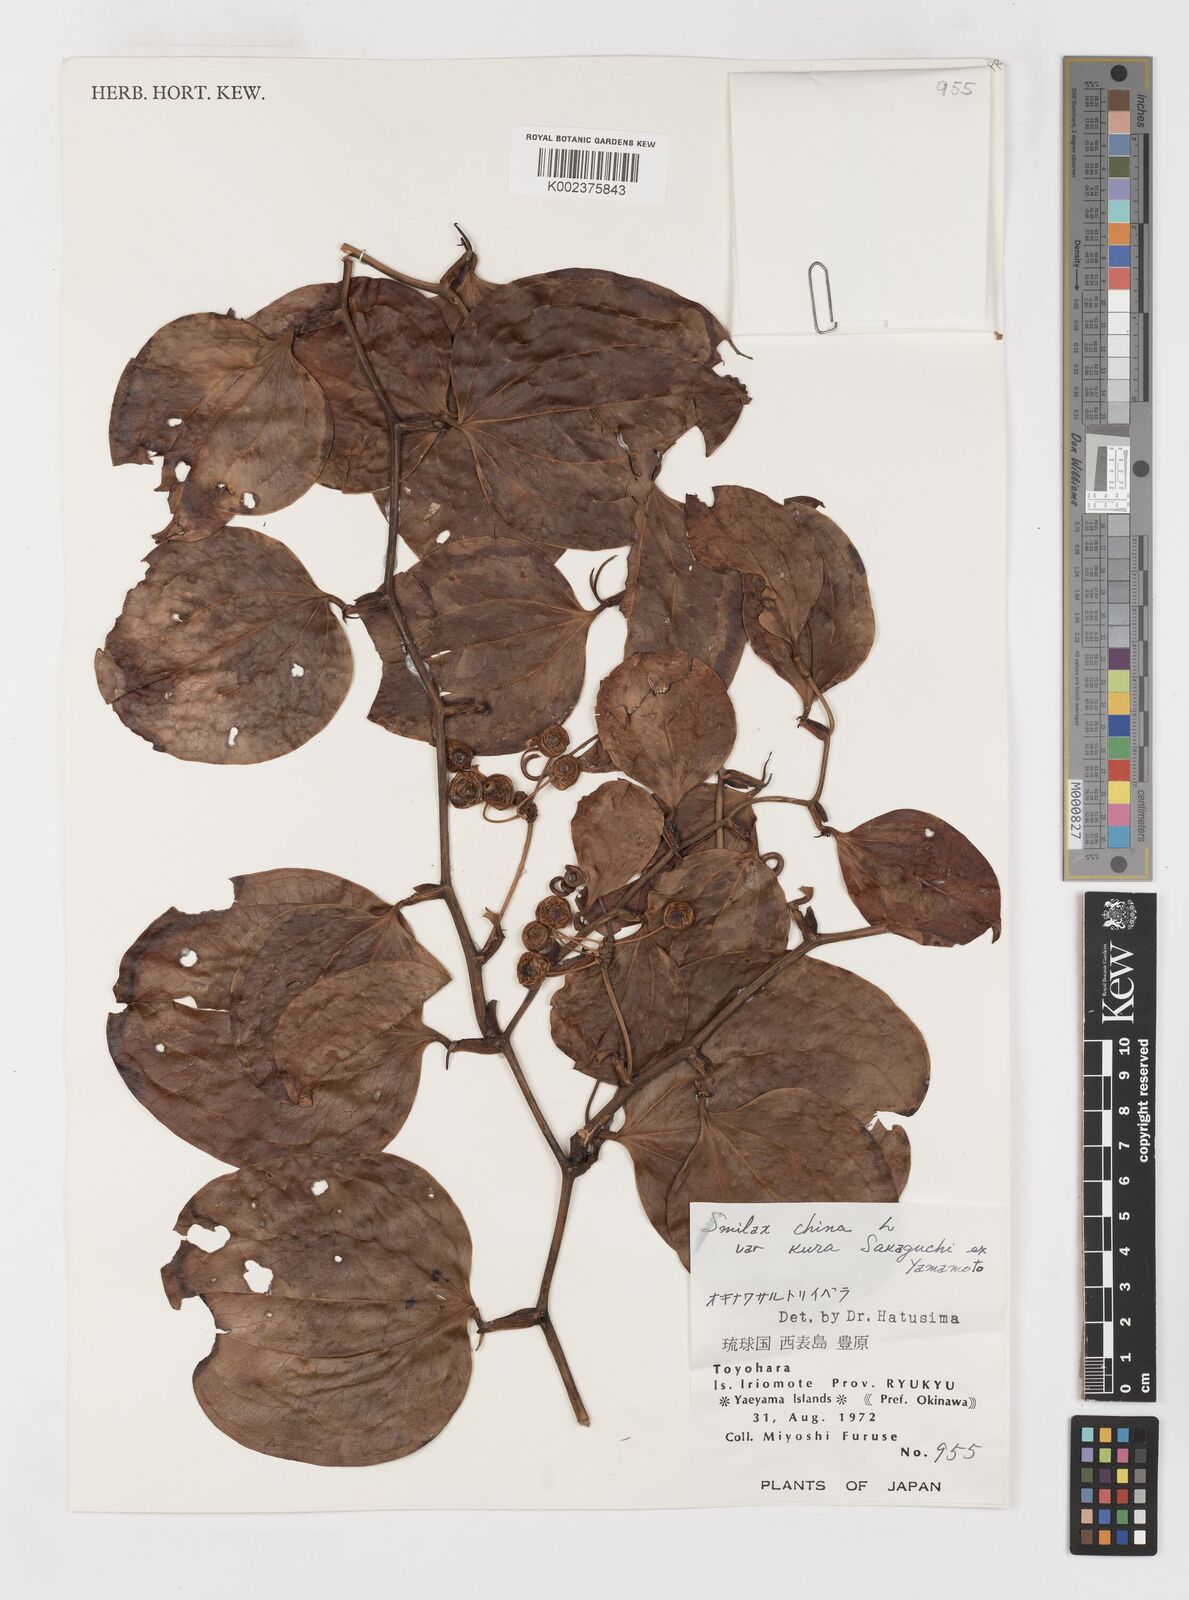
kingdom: Plantae
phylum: Tracheophyta
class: Liliopsida
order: Liliales
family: Smilacaceae
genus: Smilax
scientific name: Smilax china
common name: Chinaroot
